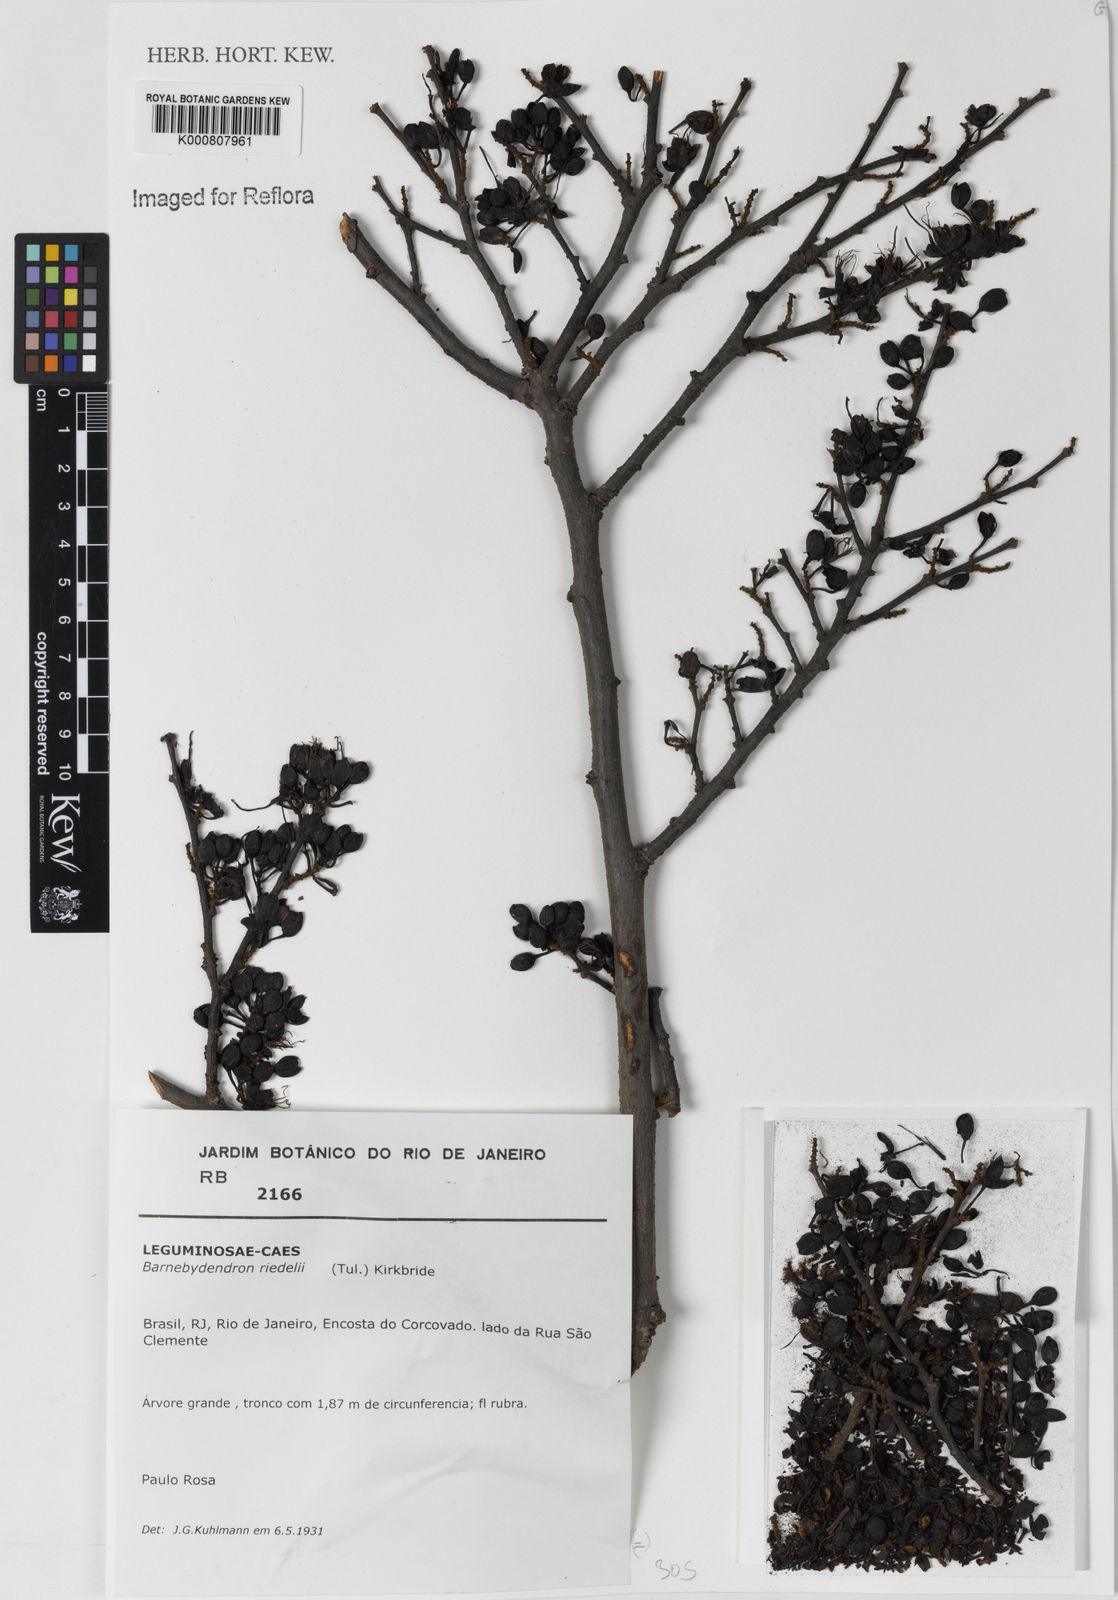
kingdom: Plantae
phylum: Tracheophyta
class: Magnoliopsida
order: Fabales
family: Fabaceae
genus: Barnebydendron
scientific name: Barnebydendron riedelii
